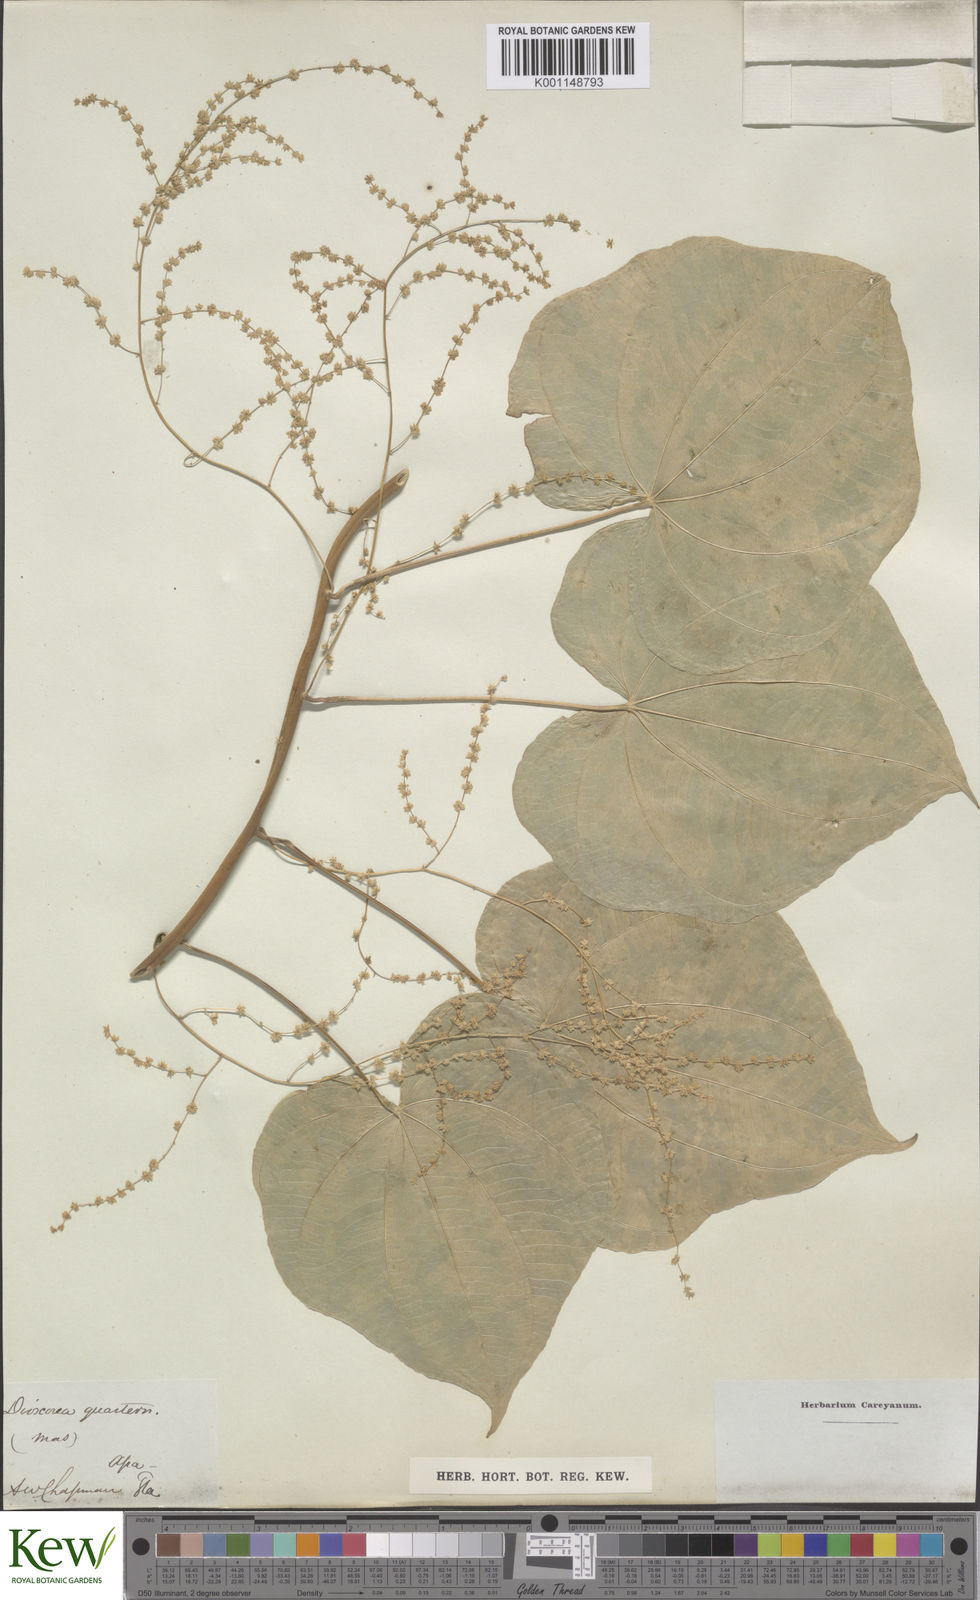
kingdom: Plantae
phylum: Tracheophyta
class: Liliopsida
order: Dioscoreales
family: Dioscoreaceae
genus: Dioscorea
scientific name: Dioscorea villosa
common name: Wild yam
